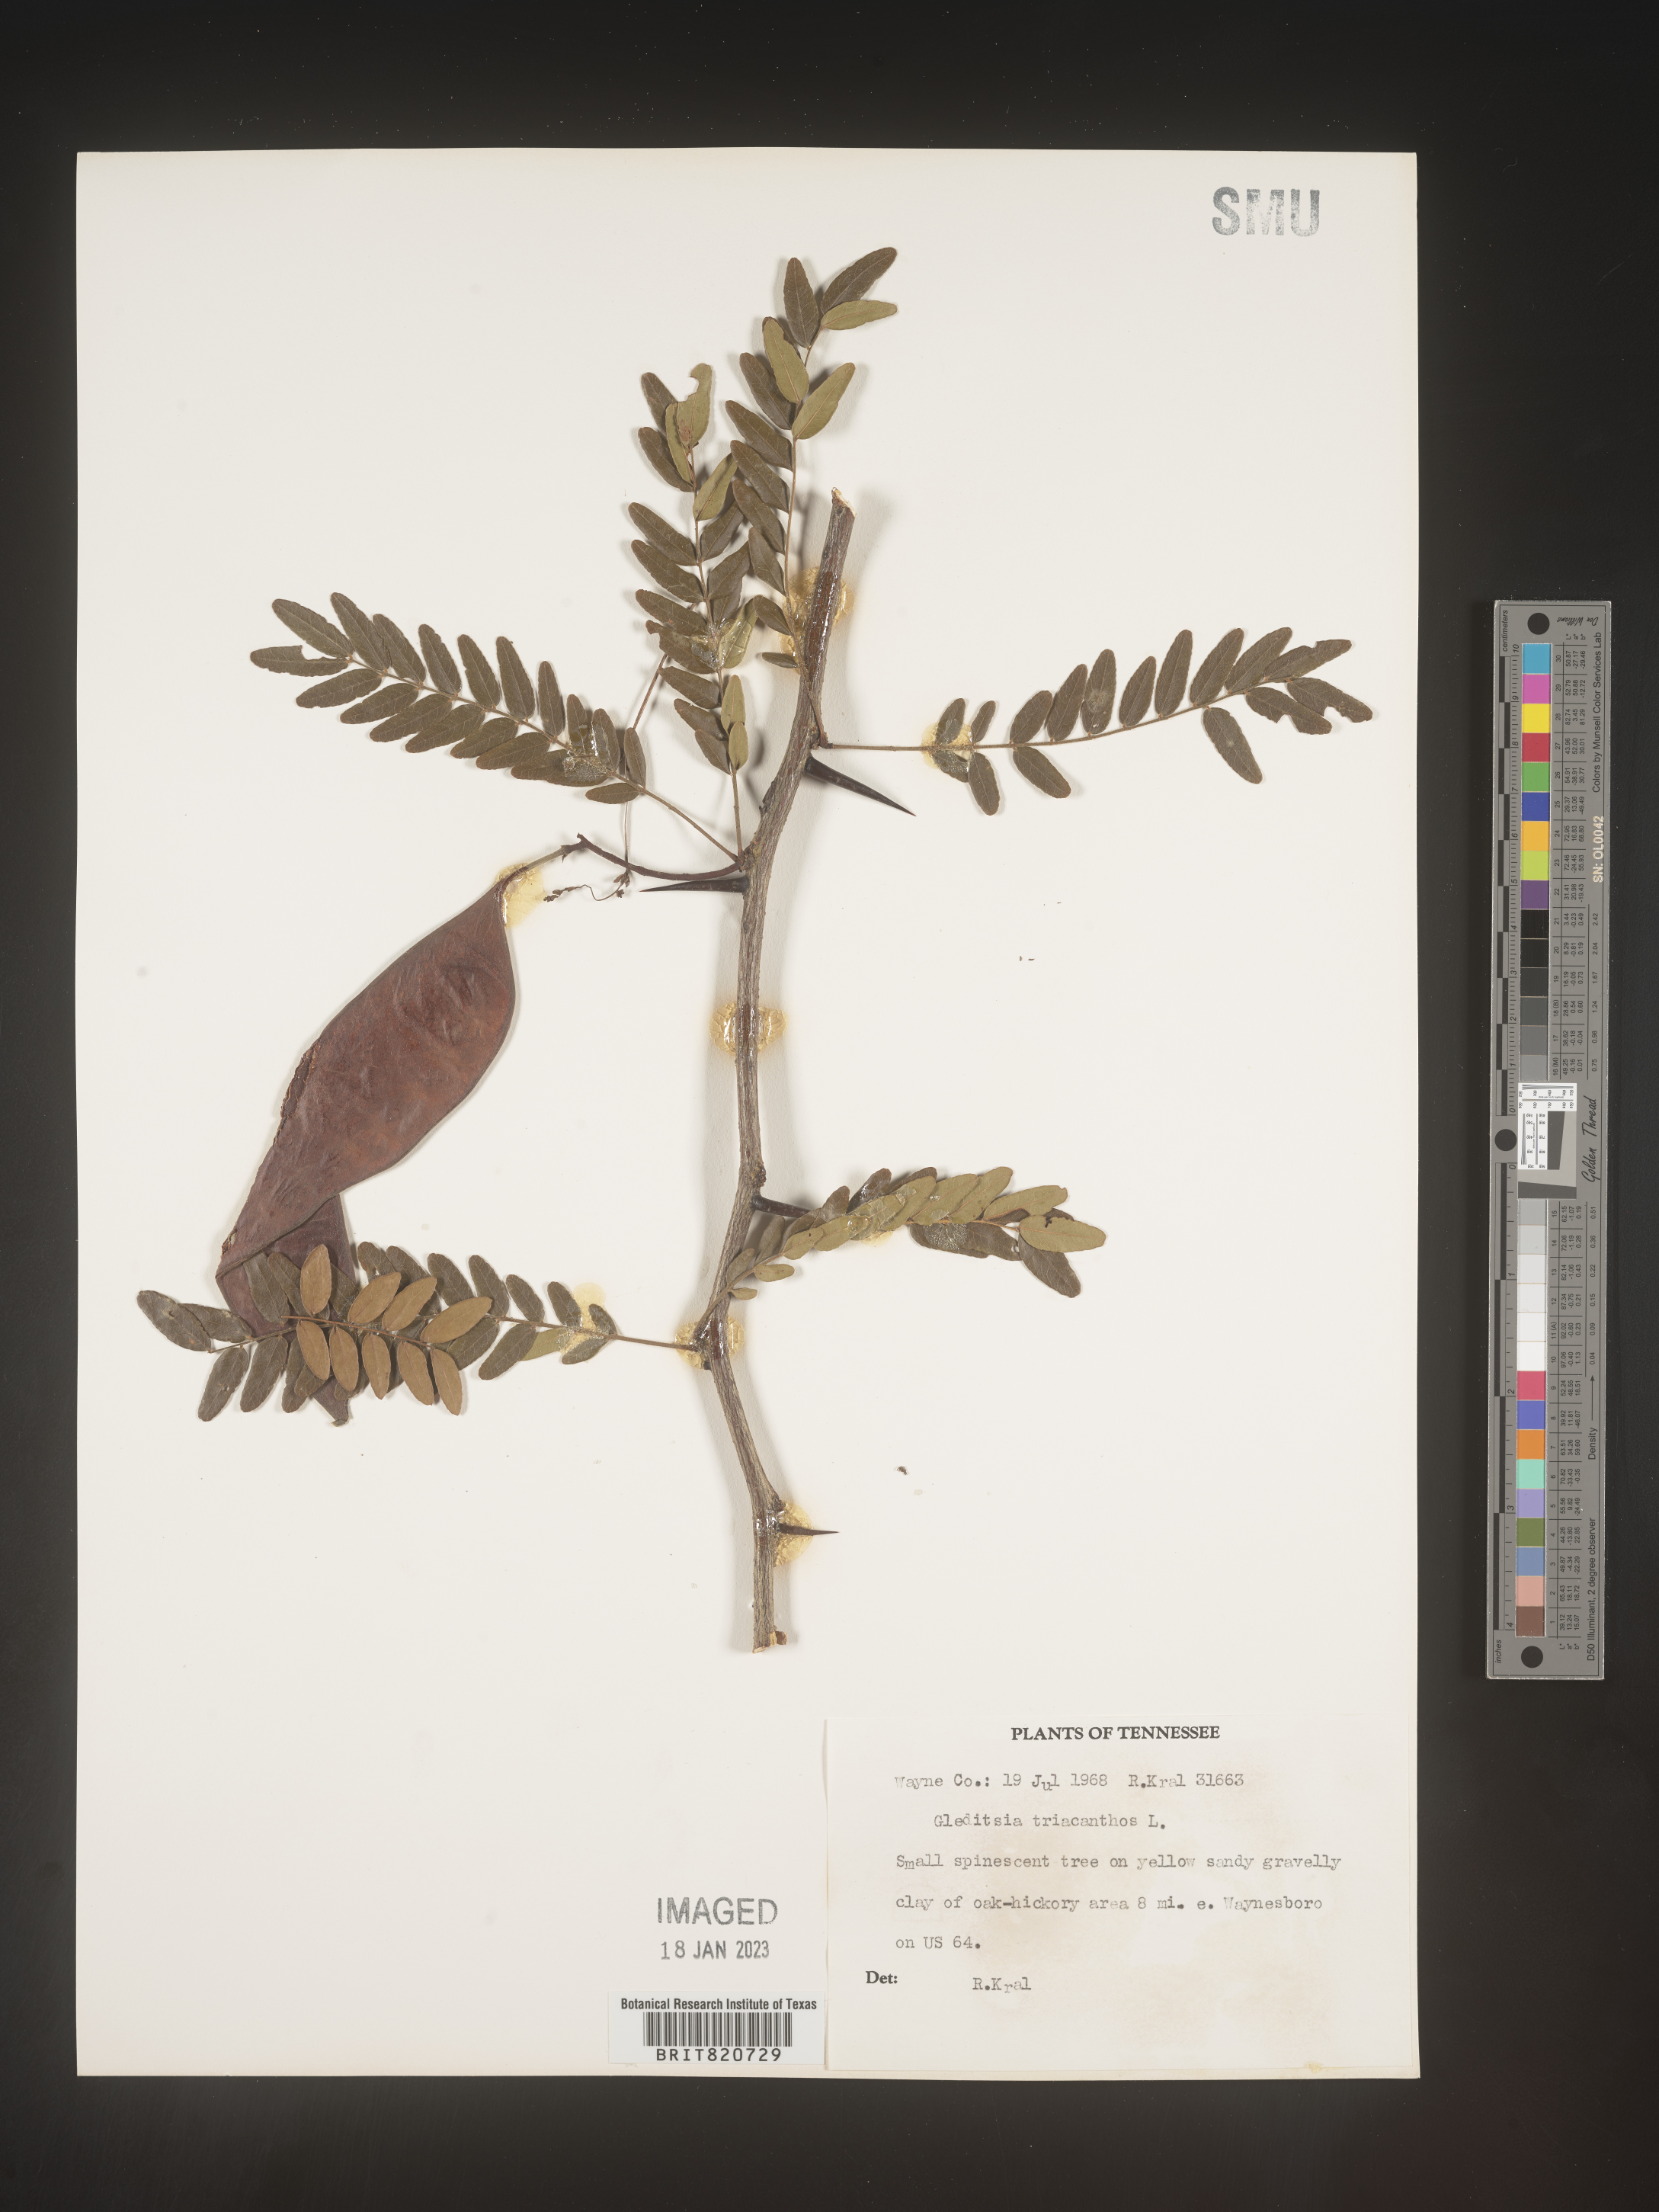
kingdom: Plantae
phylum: Tracheophyta
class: Magnoliopsida
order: Fabales
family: Fabaceae
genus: Gleditsia
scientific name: Gleditsia triacanthos
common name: Common honeylocust
